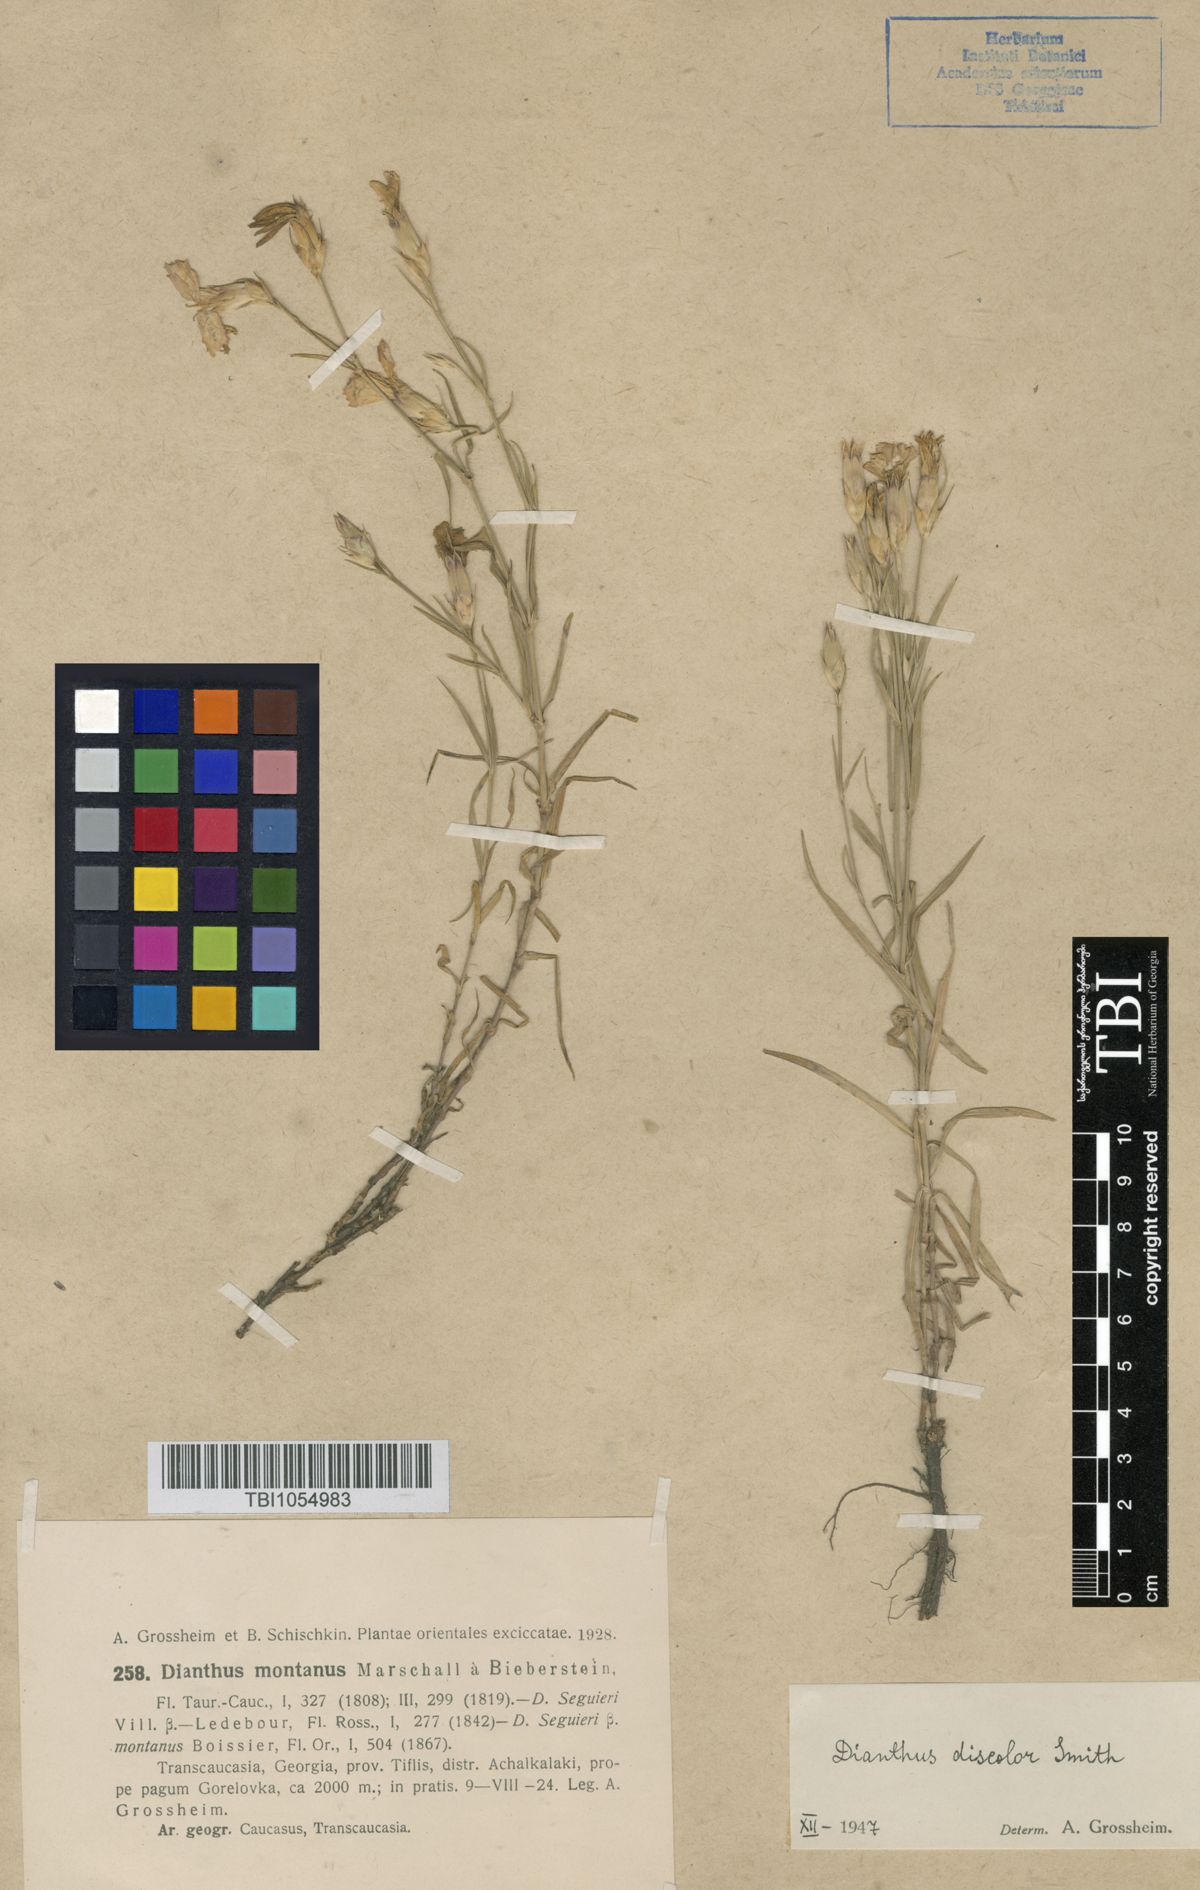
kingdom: Plantae
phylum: Tracheophyta
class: Magnoliopsida
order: Caryophyllales
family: Caryophyllaceae
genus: Dianthus
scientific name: Dianthus caucaseus
